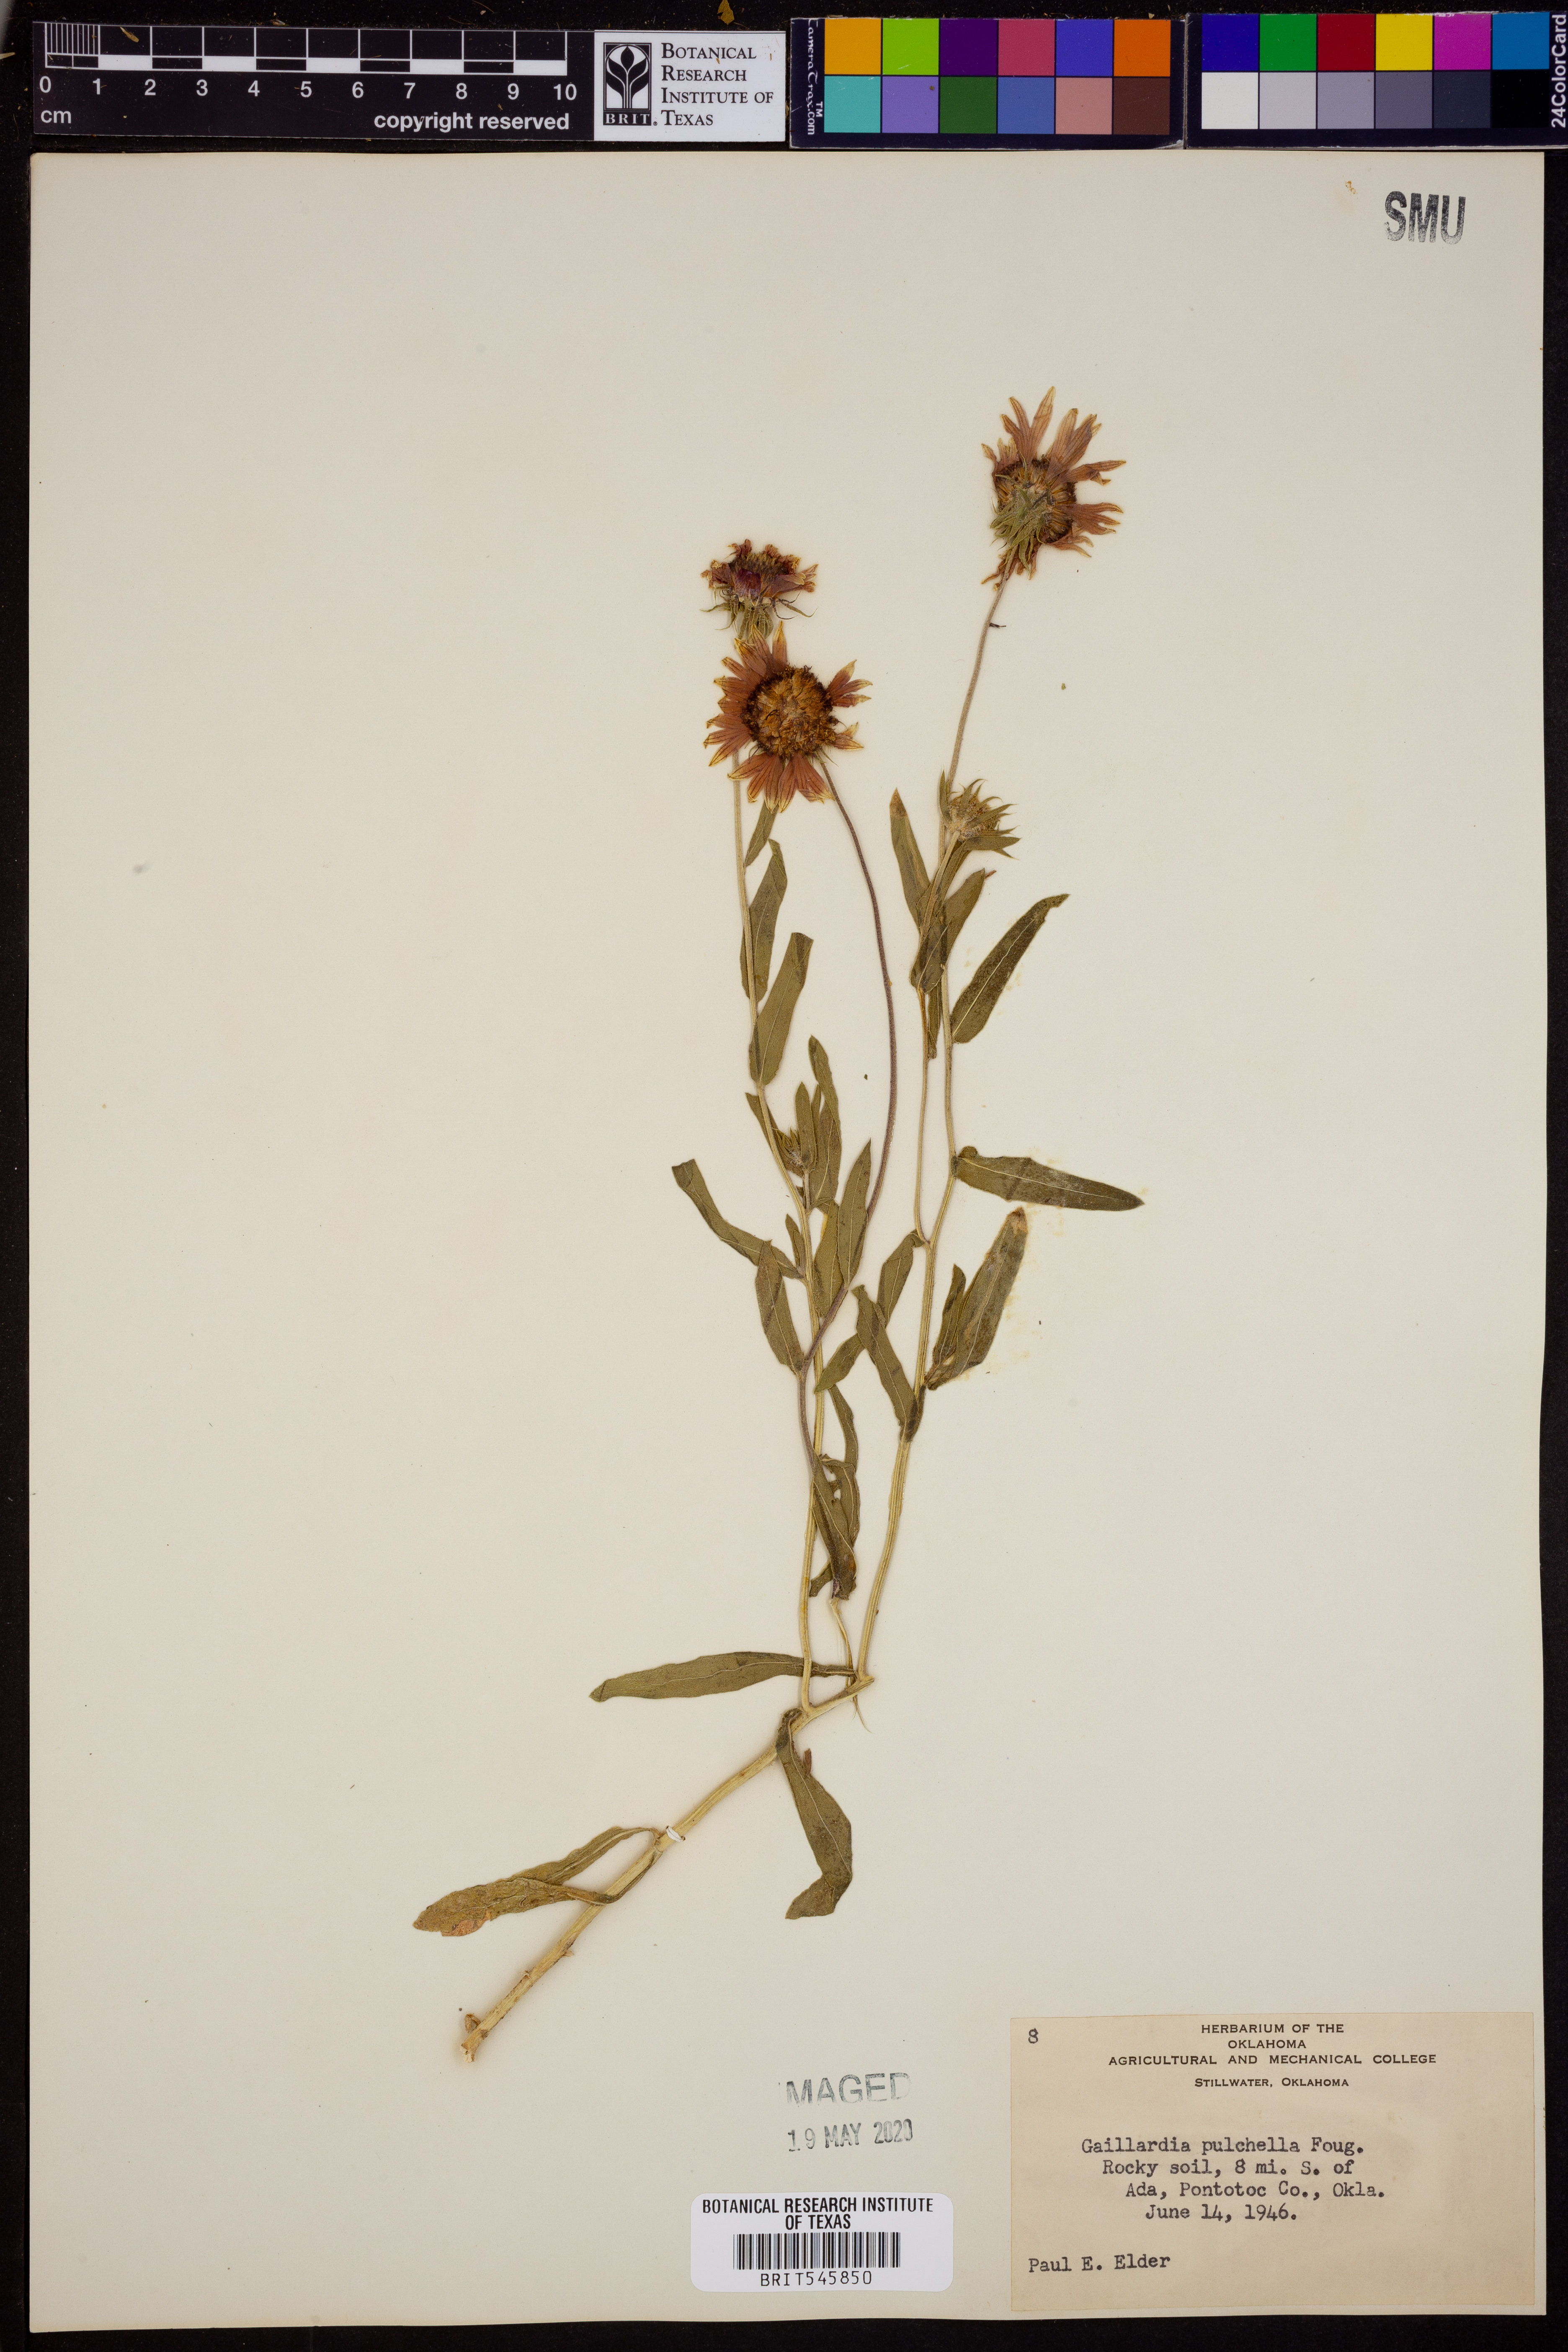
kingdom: Plantae
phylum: Tracheophyta
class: Magnoliopsida
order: Asterales
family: Asteraceae
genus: Gaillardia
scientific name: Gaillardia pulchella
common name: Firewheel
